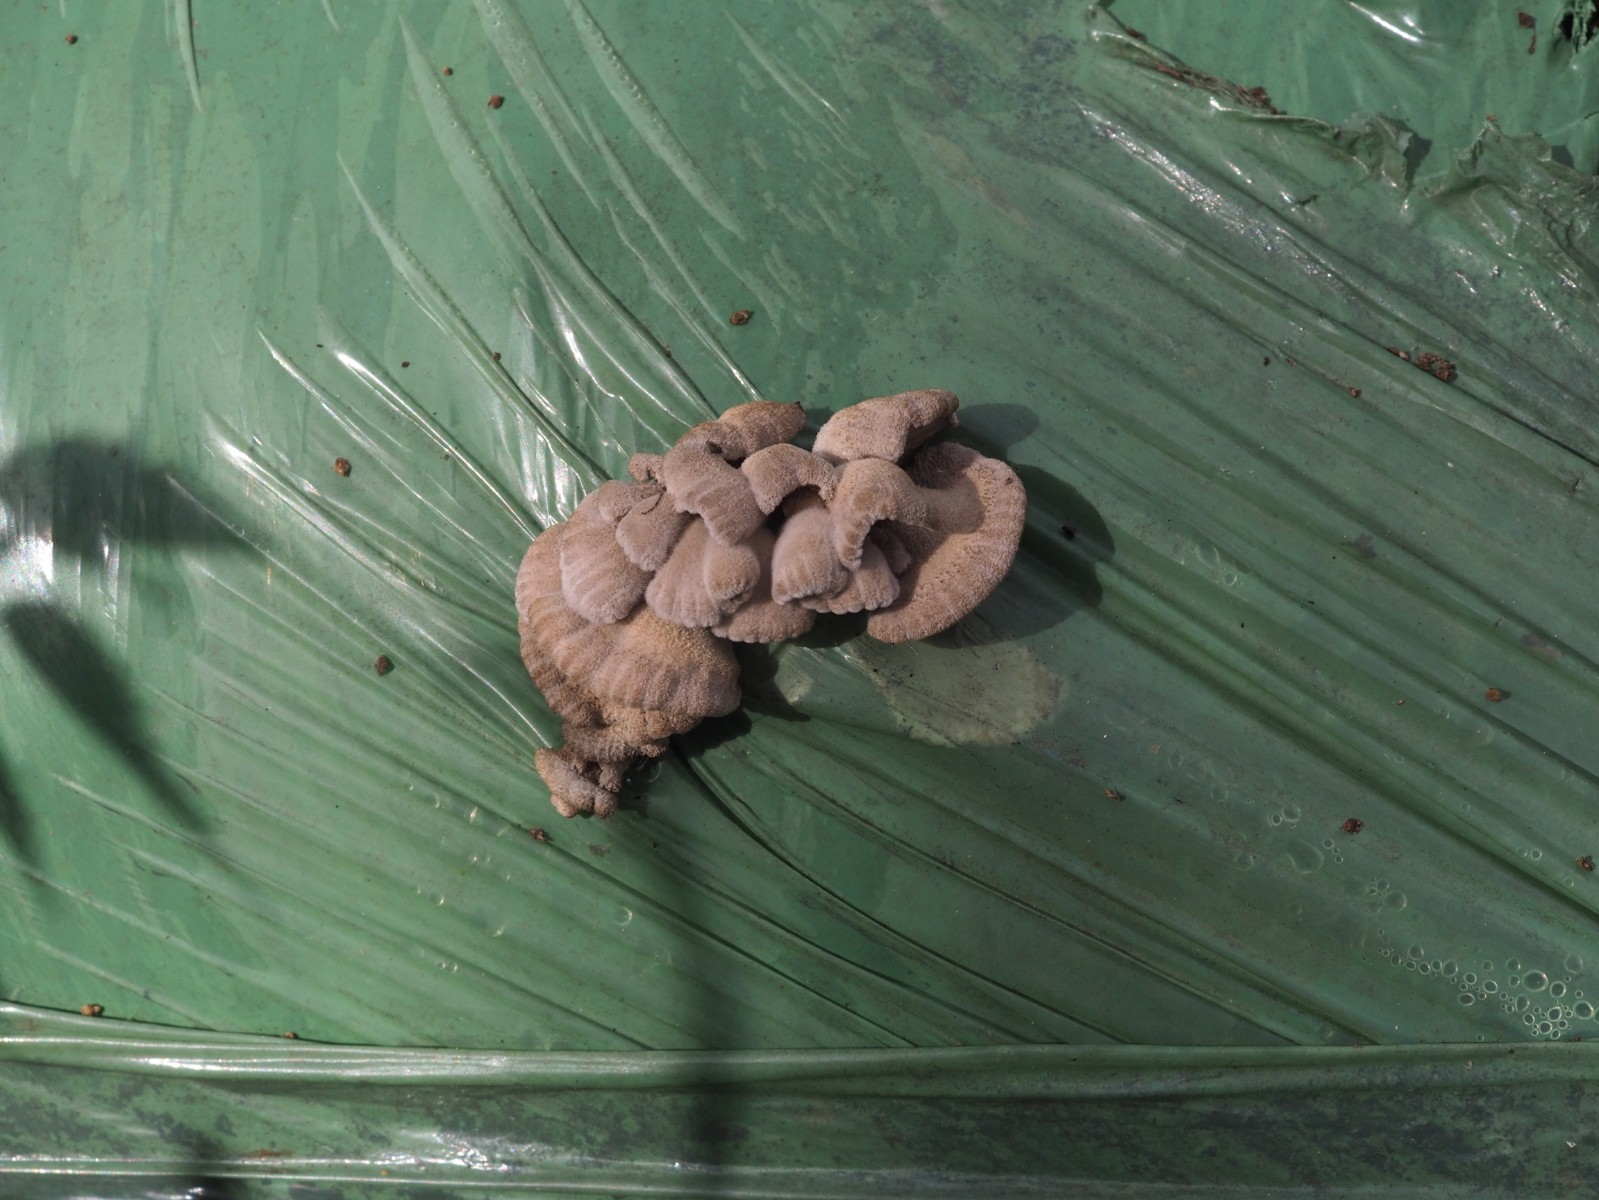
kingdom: Fungi
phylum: Basidiomycota
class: Agaricomycetes
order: Agaricales
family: Schizophyllaceae
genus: Schizophyllum
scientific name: Schizophyllum commune
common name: kløvblad
